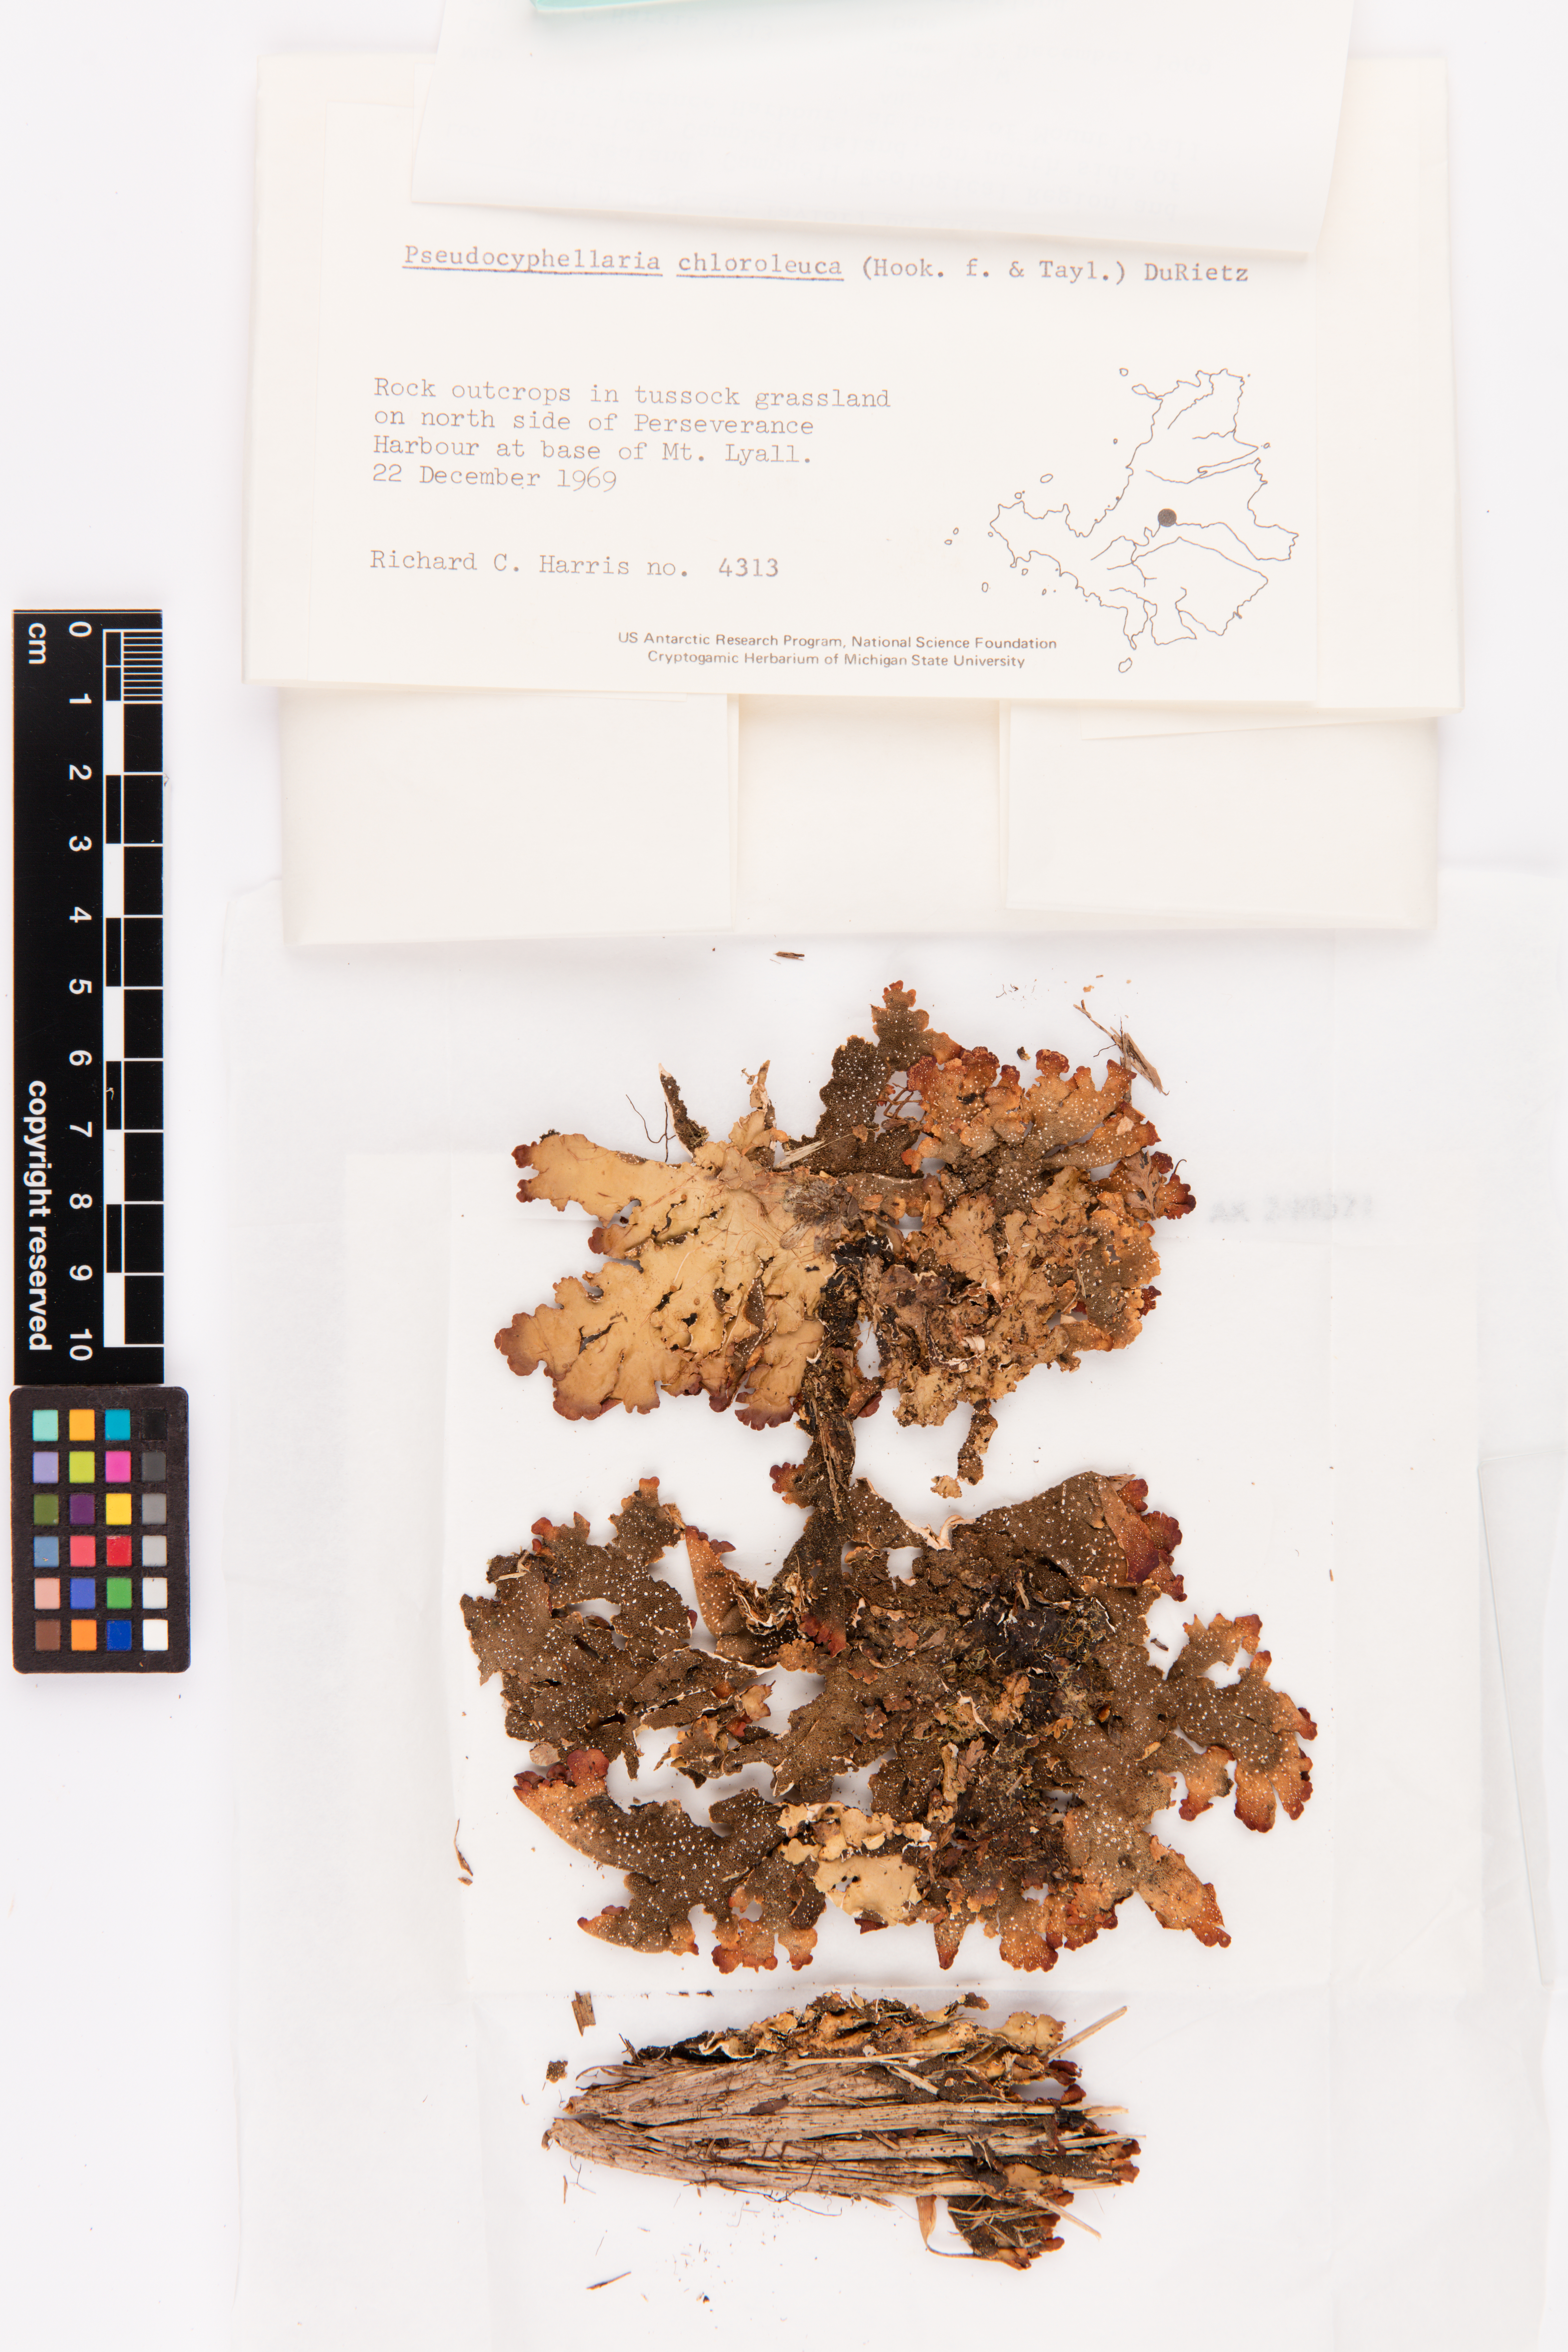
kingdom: Fungi
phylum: Ascomycota
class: Lecanoromycetes
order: Peltigerales
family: Lobariaceae
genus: Pseudocyphellaria
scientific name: Pseudocyphellaria chloroleuca
